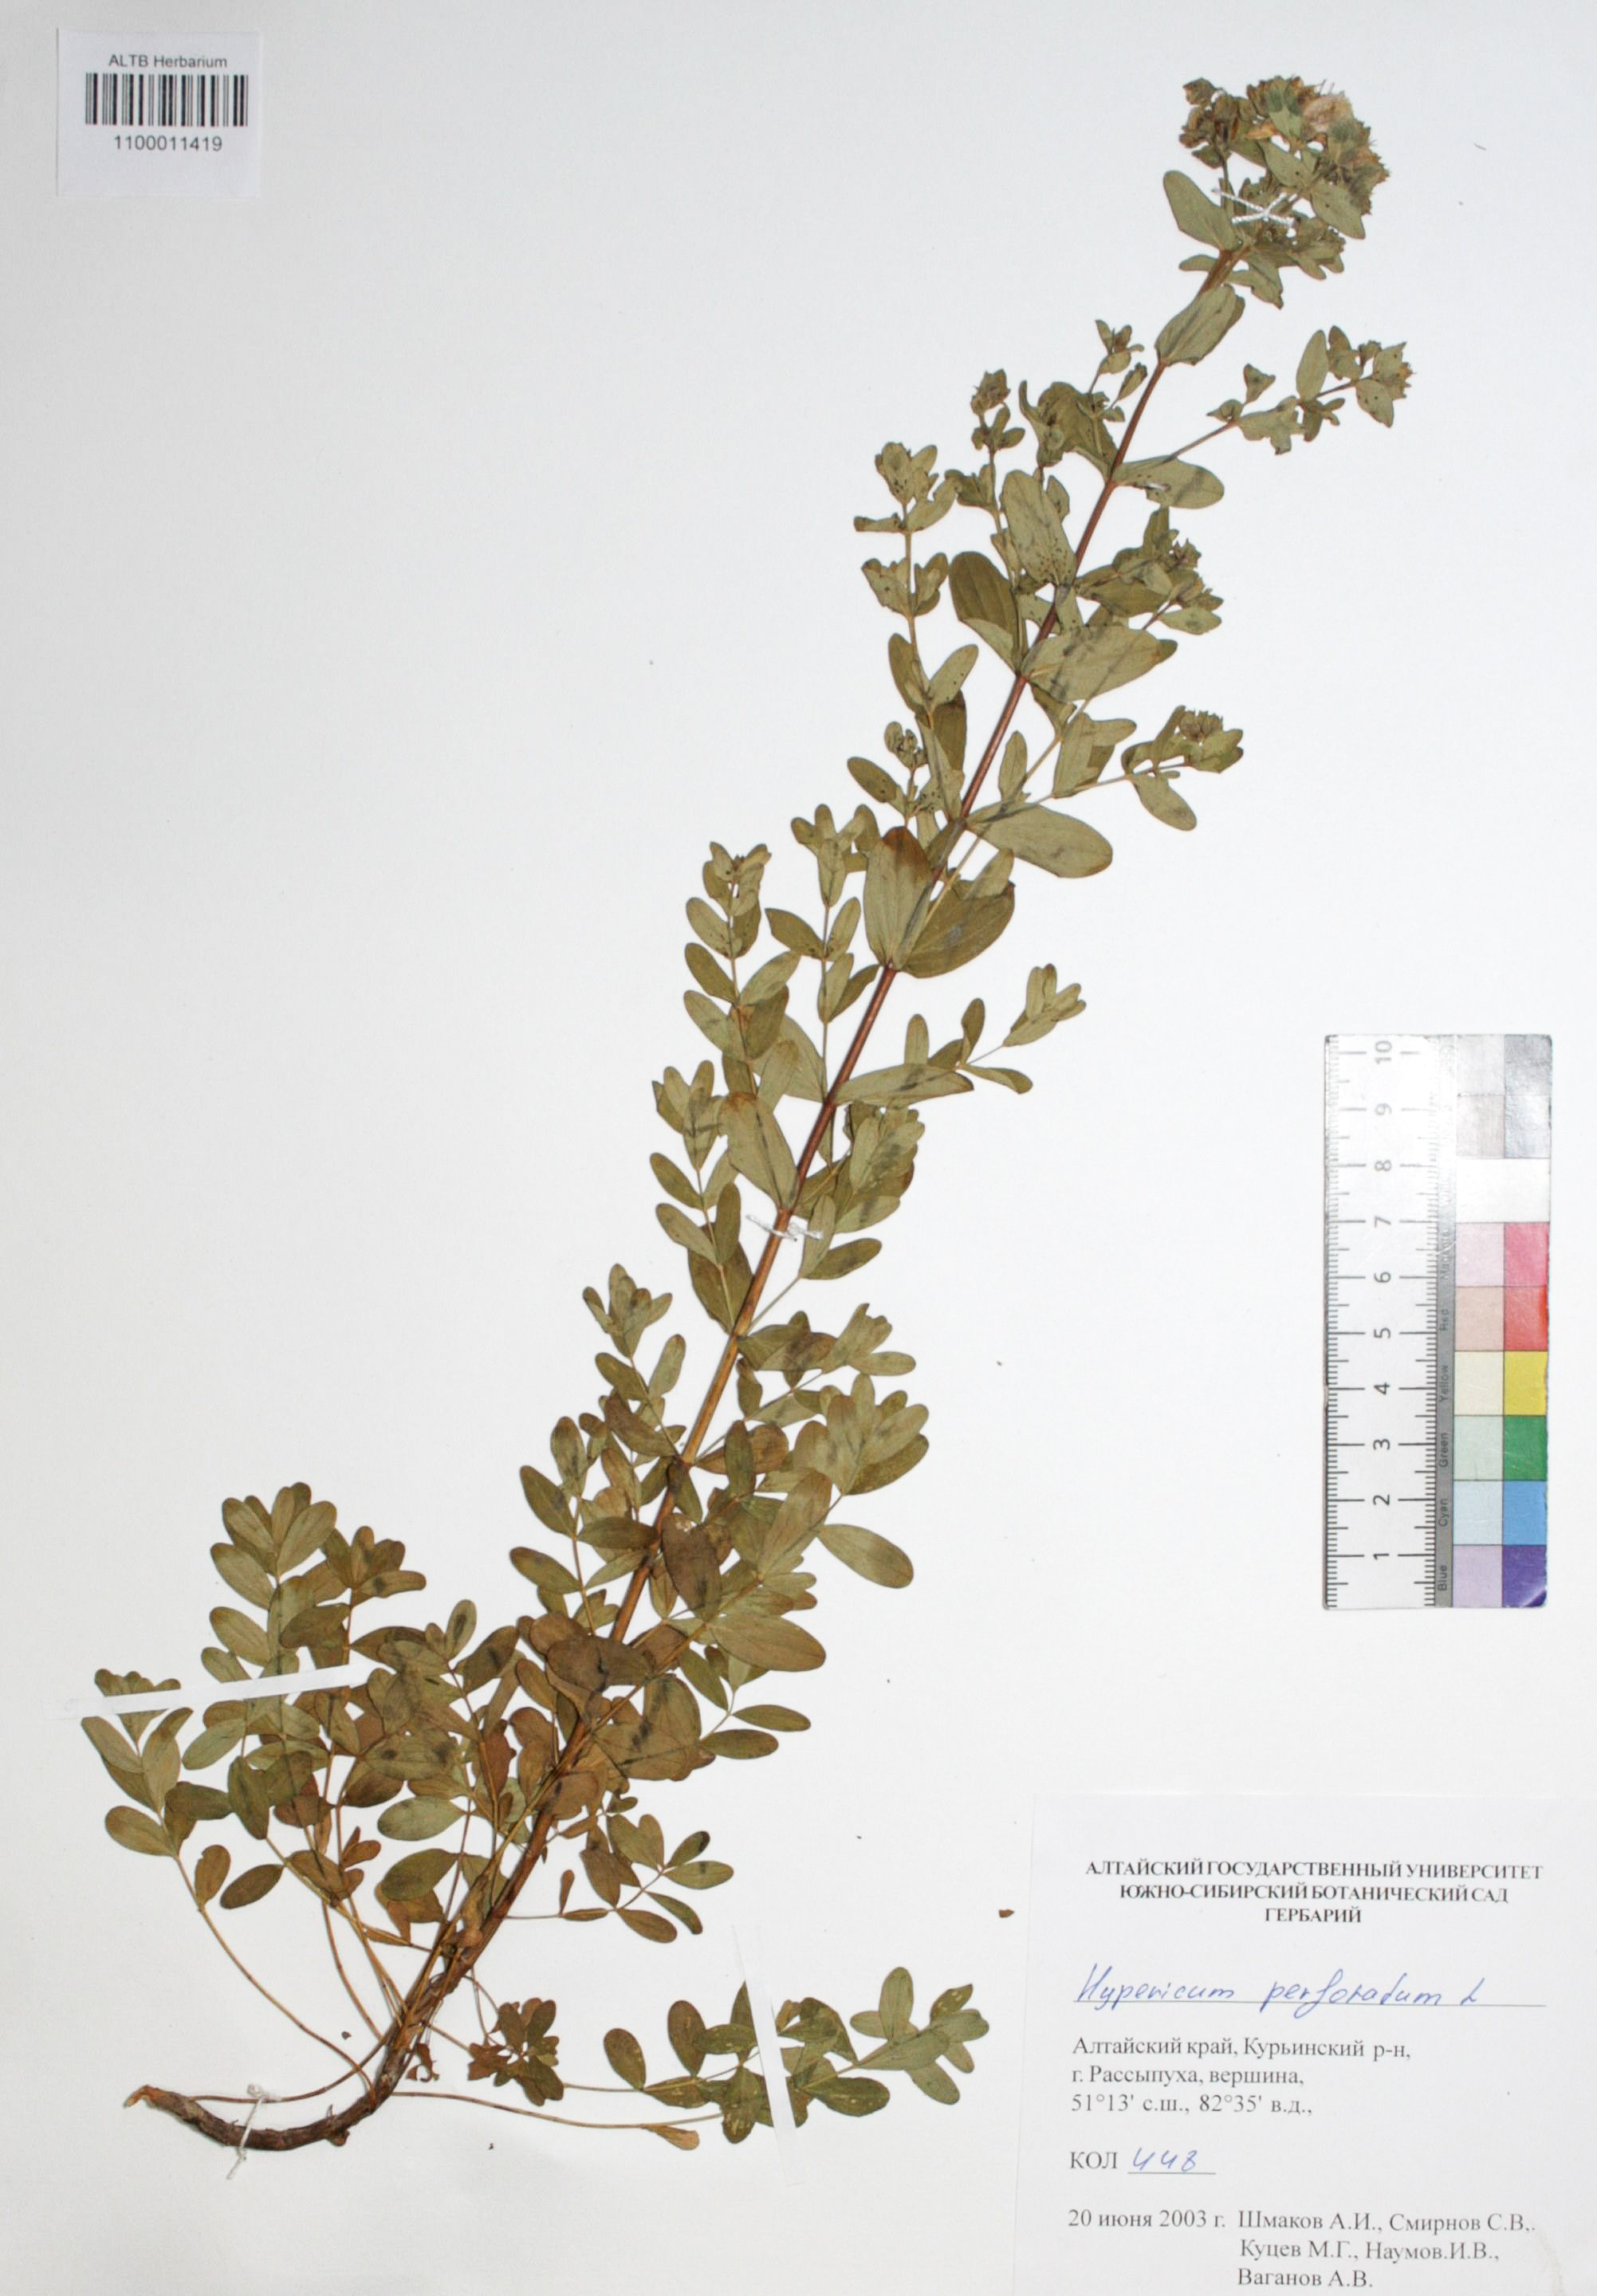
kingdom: Plantae
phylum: Tracheophyta
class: Magnoliopsida
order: Malpighiales
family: Hypericaceae
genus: Hypericum
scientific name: Hypericum perforatum
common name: Common st. johnswort
